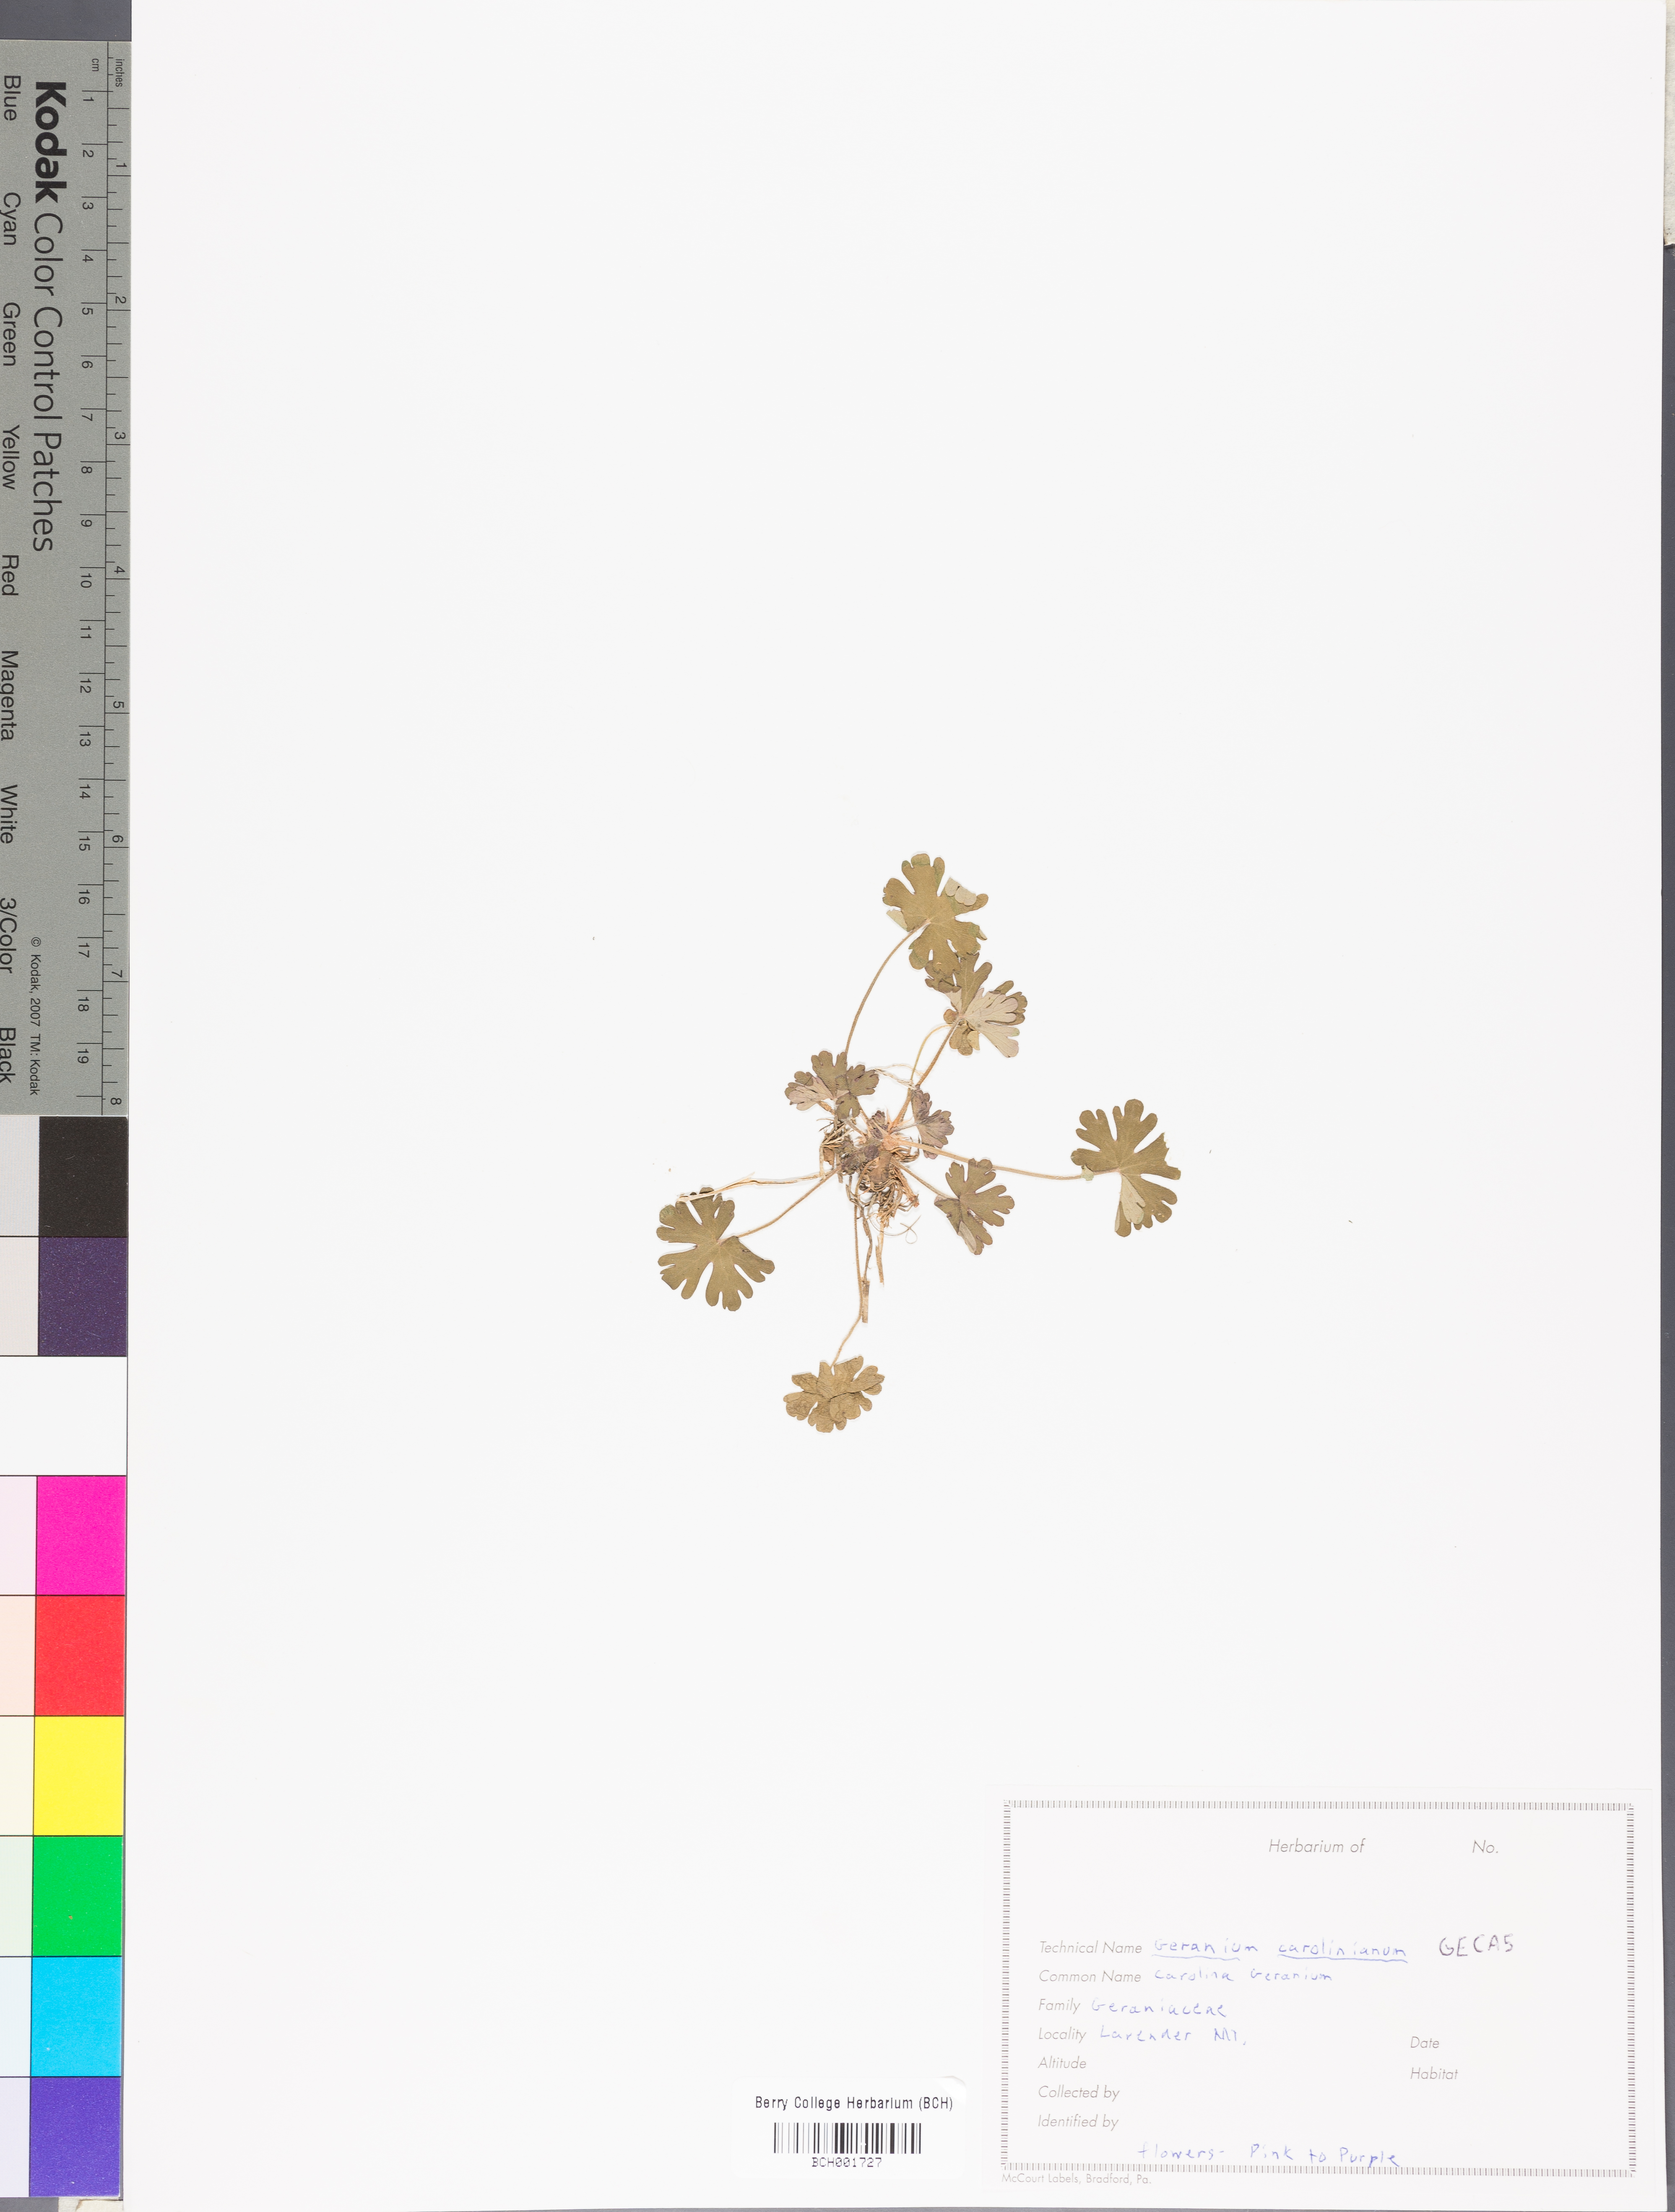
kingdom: Plantae
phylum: Tracheophyta
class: Magnoliopsida
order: Geraniales
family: Geraniaceae
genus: Geranium
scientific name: Geranium carolinianum
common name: Carolina crane's-bill
